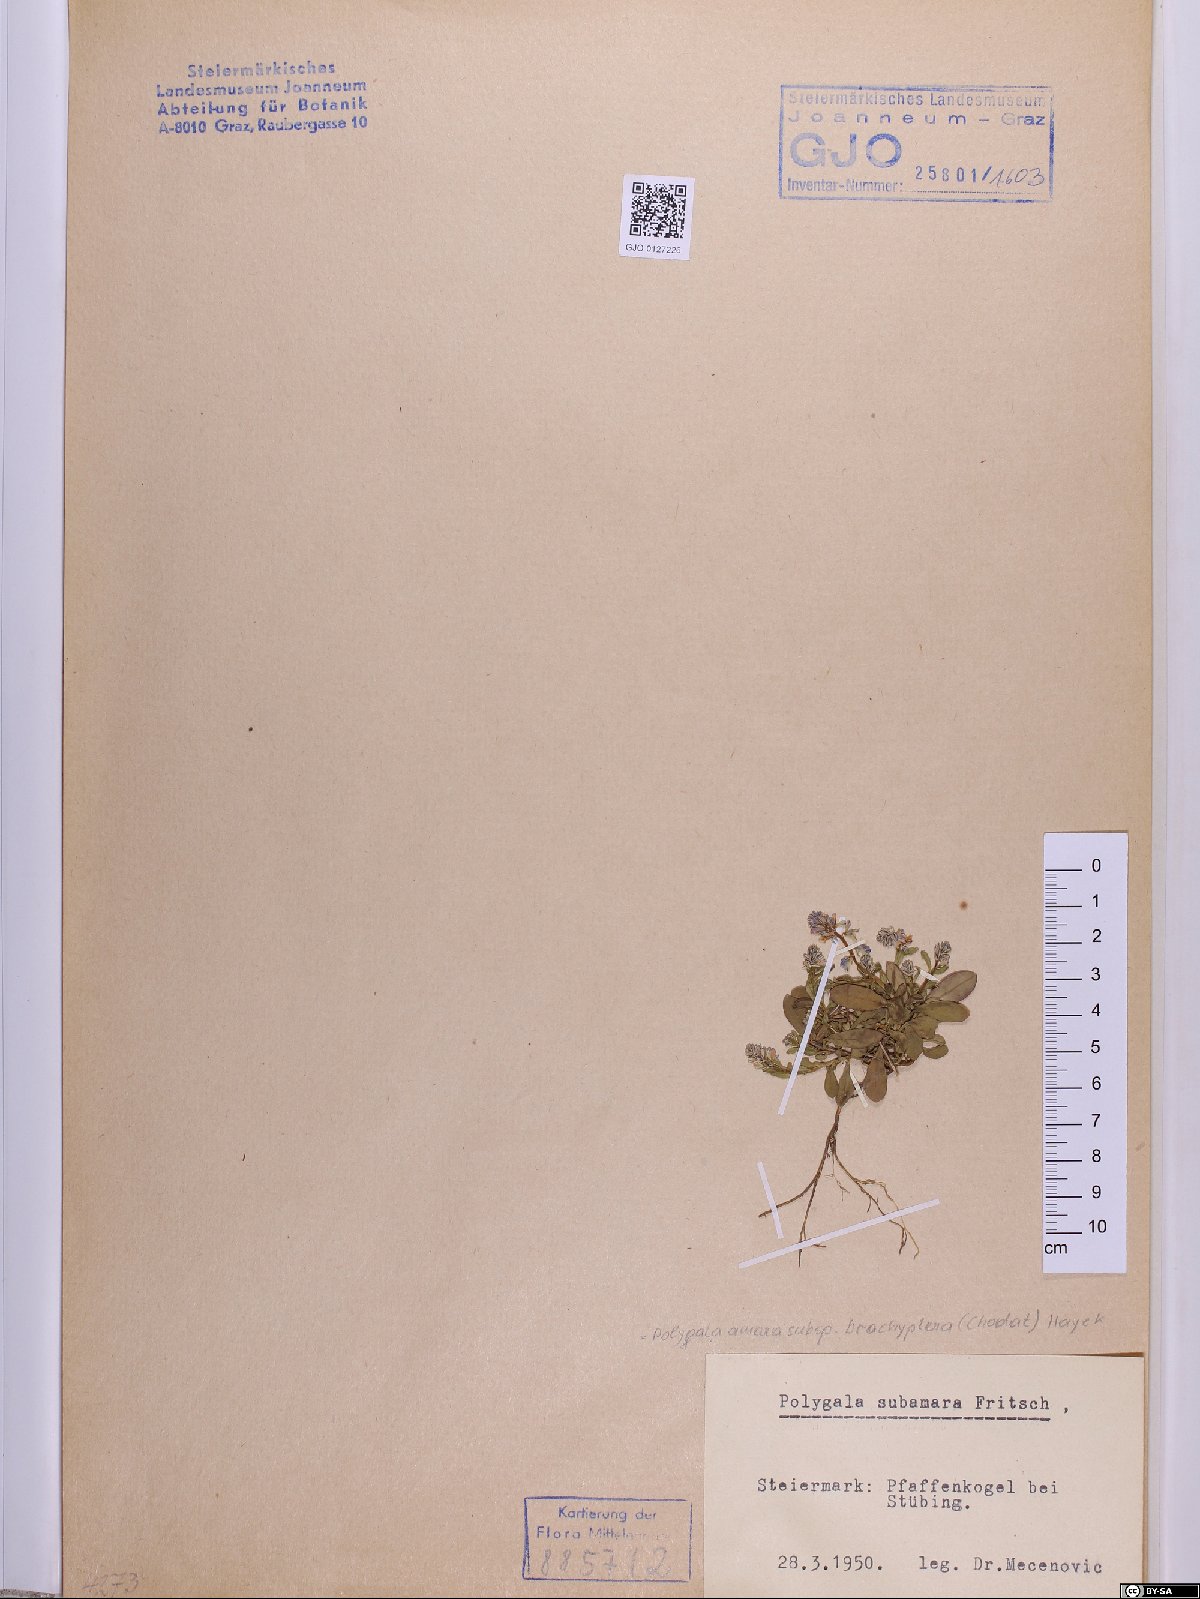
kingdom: Plantae
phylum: Tracheophyta
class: Magnoliopsida
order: Fabales
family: Polygalaceae
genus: Polygala
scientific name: Polygala amara
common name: Milkwort
